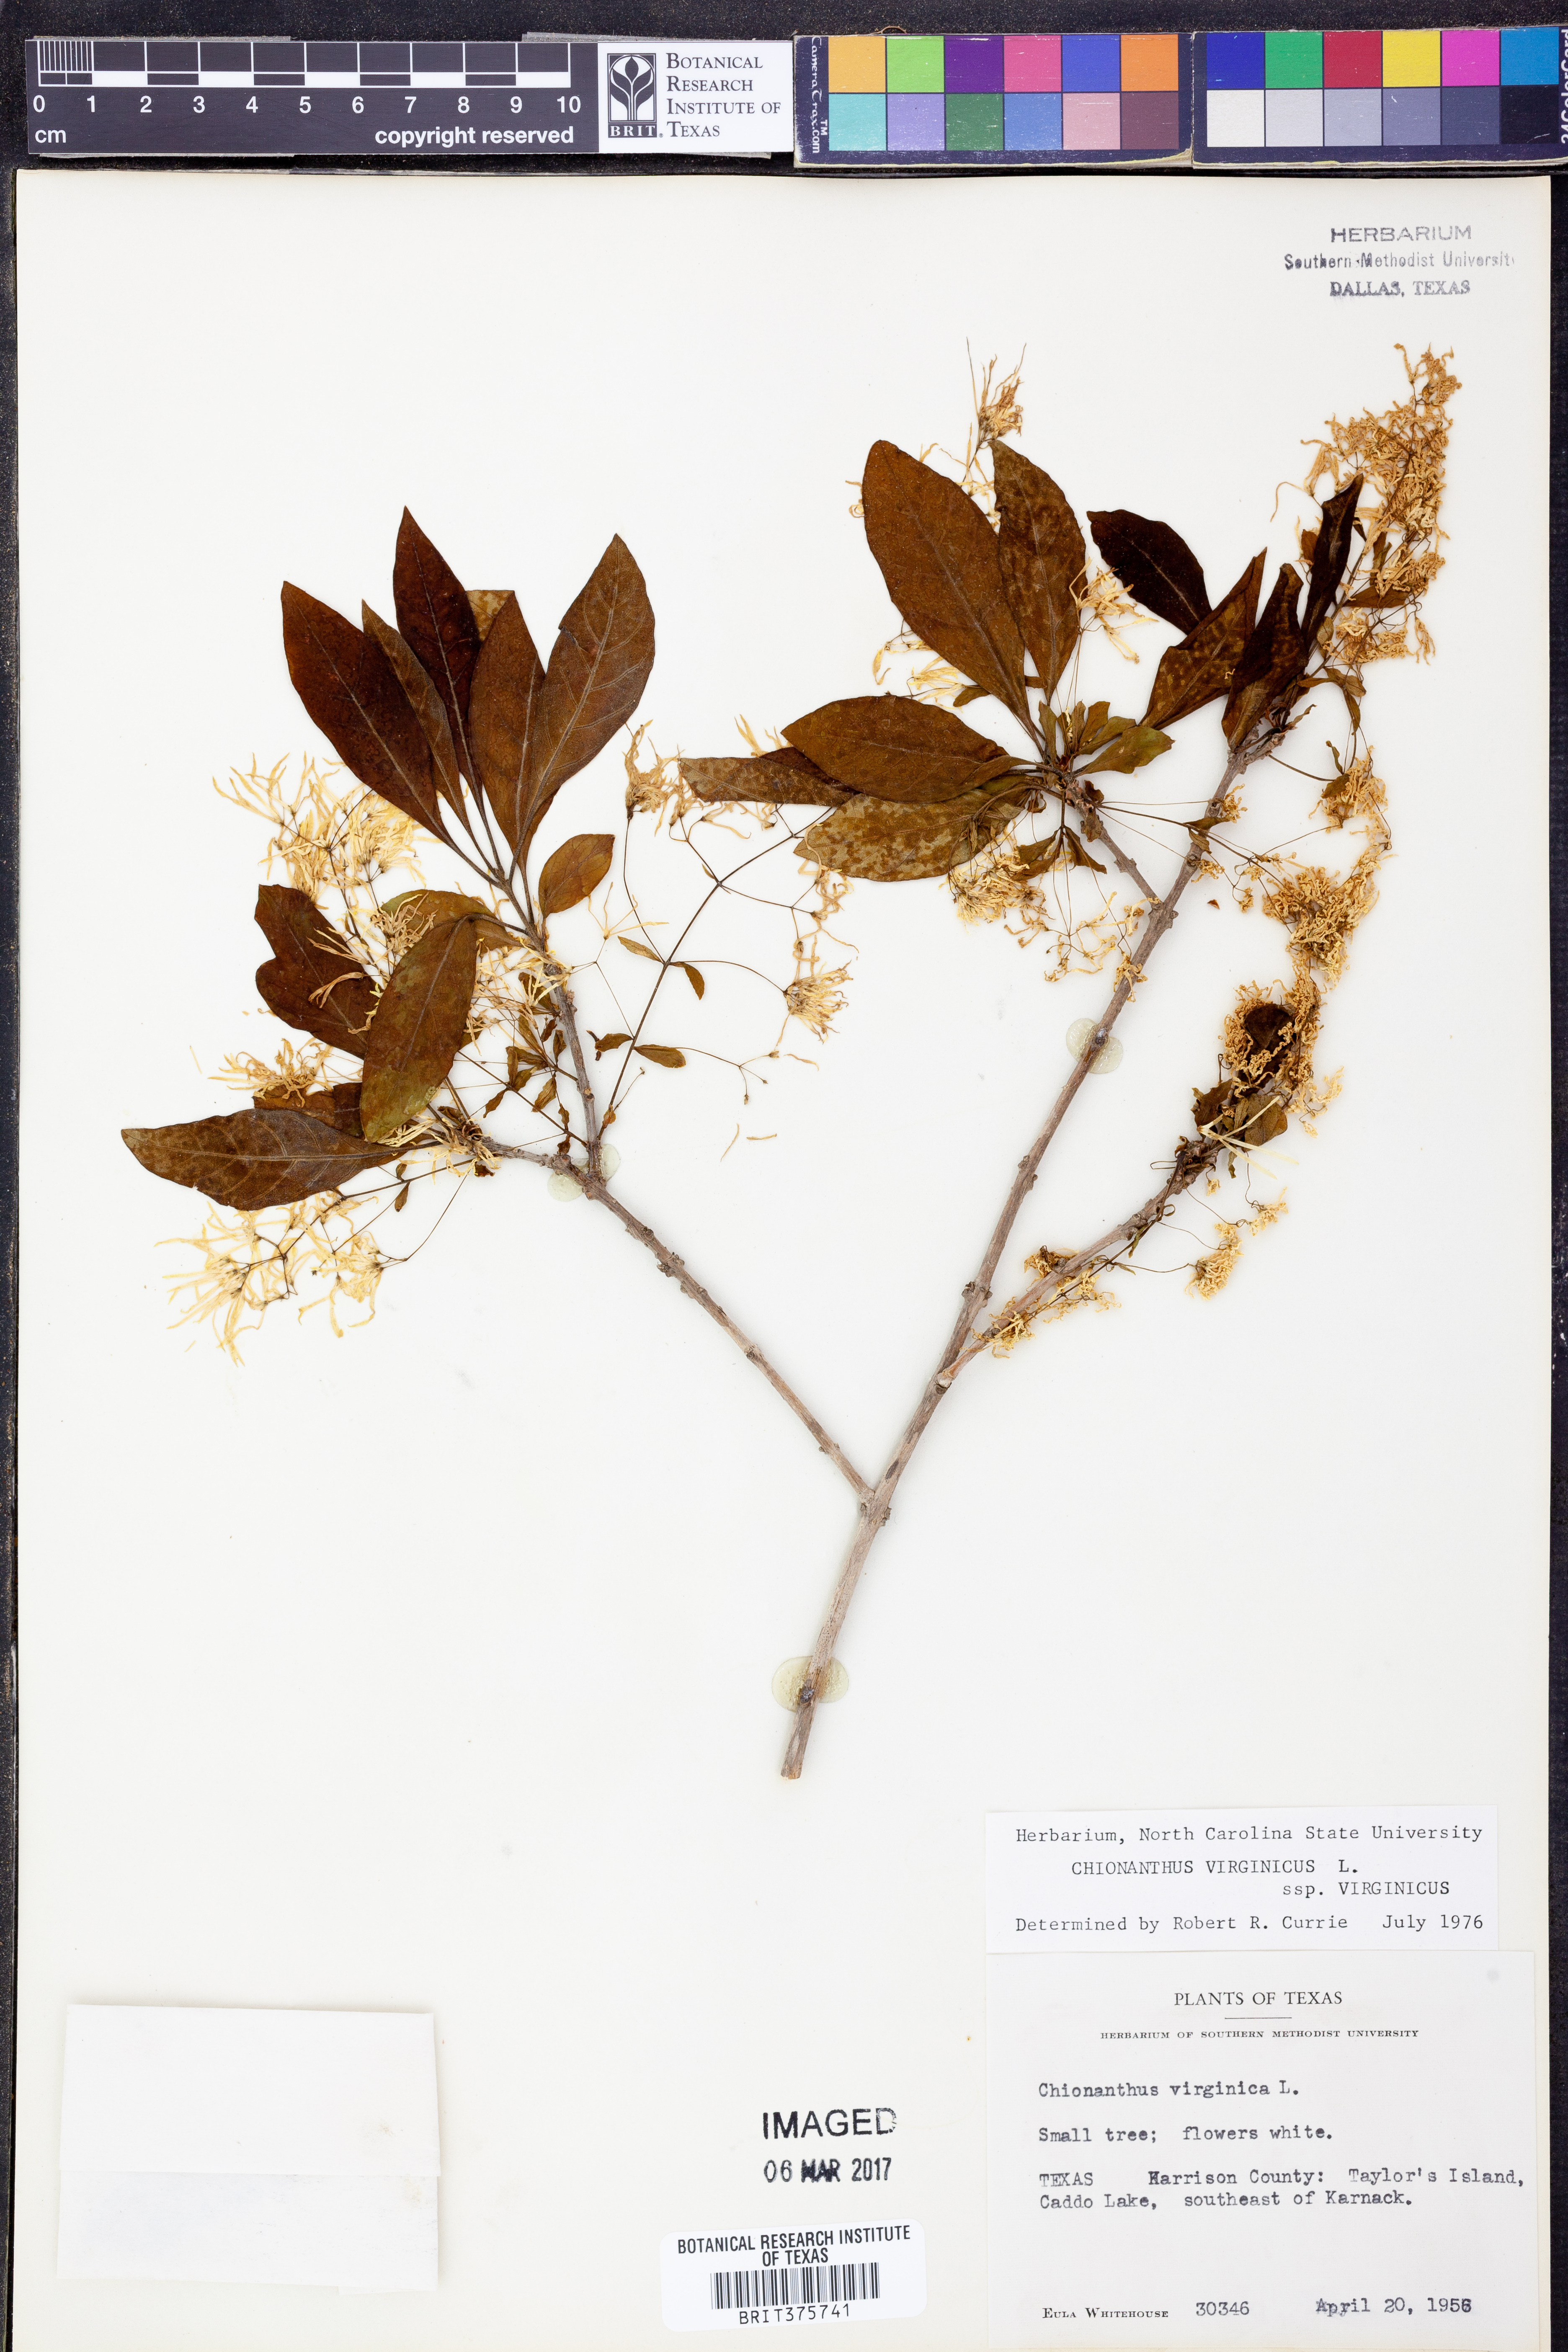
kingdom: Plantae
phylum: Tracheophyta
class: Magnoliopsida
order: Lamiales
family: Oleaceae
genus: Chionanthus
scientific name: Chionanthus virginicus
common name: American fringetree
